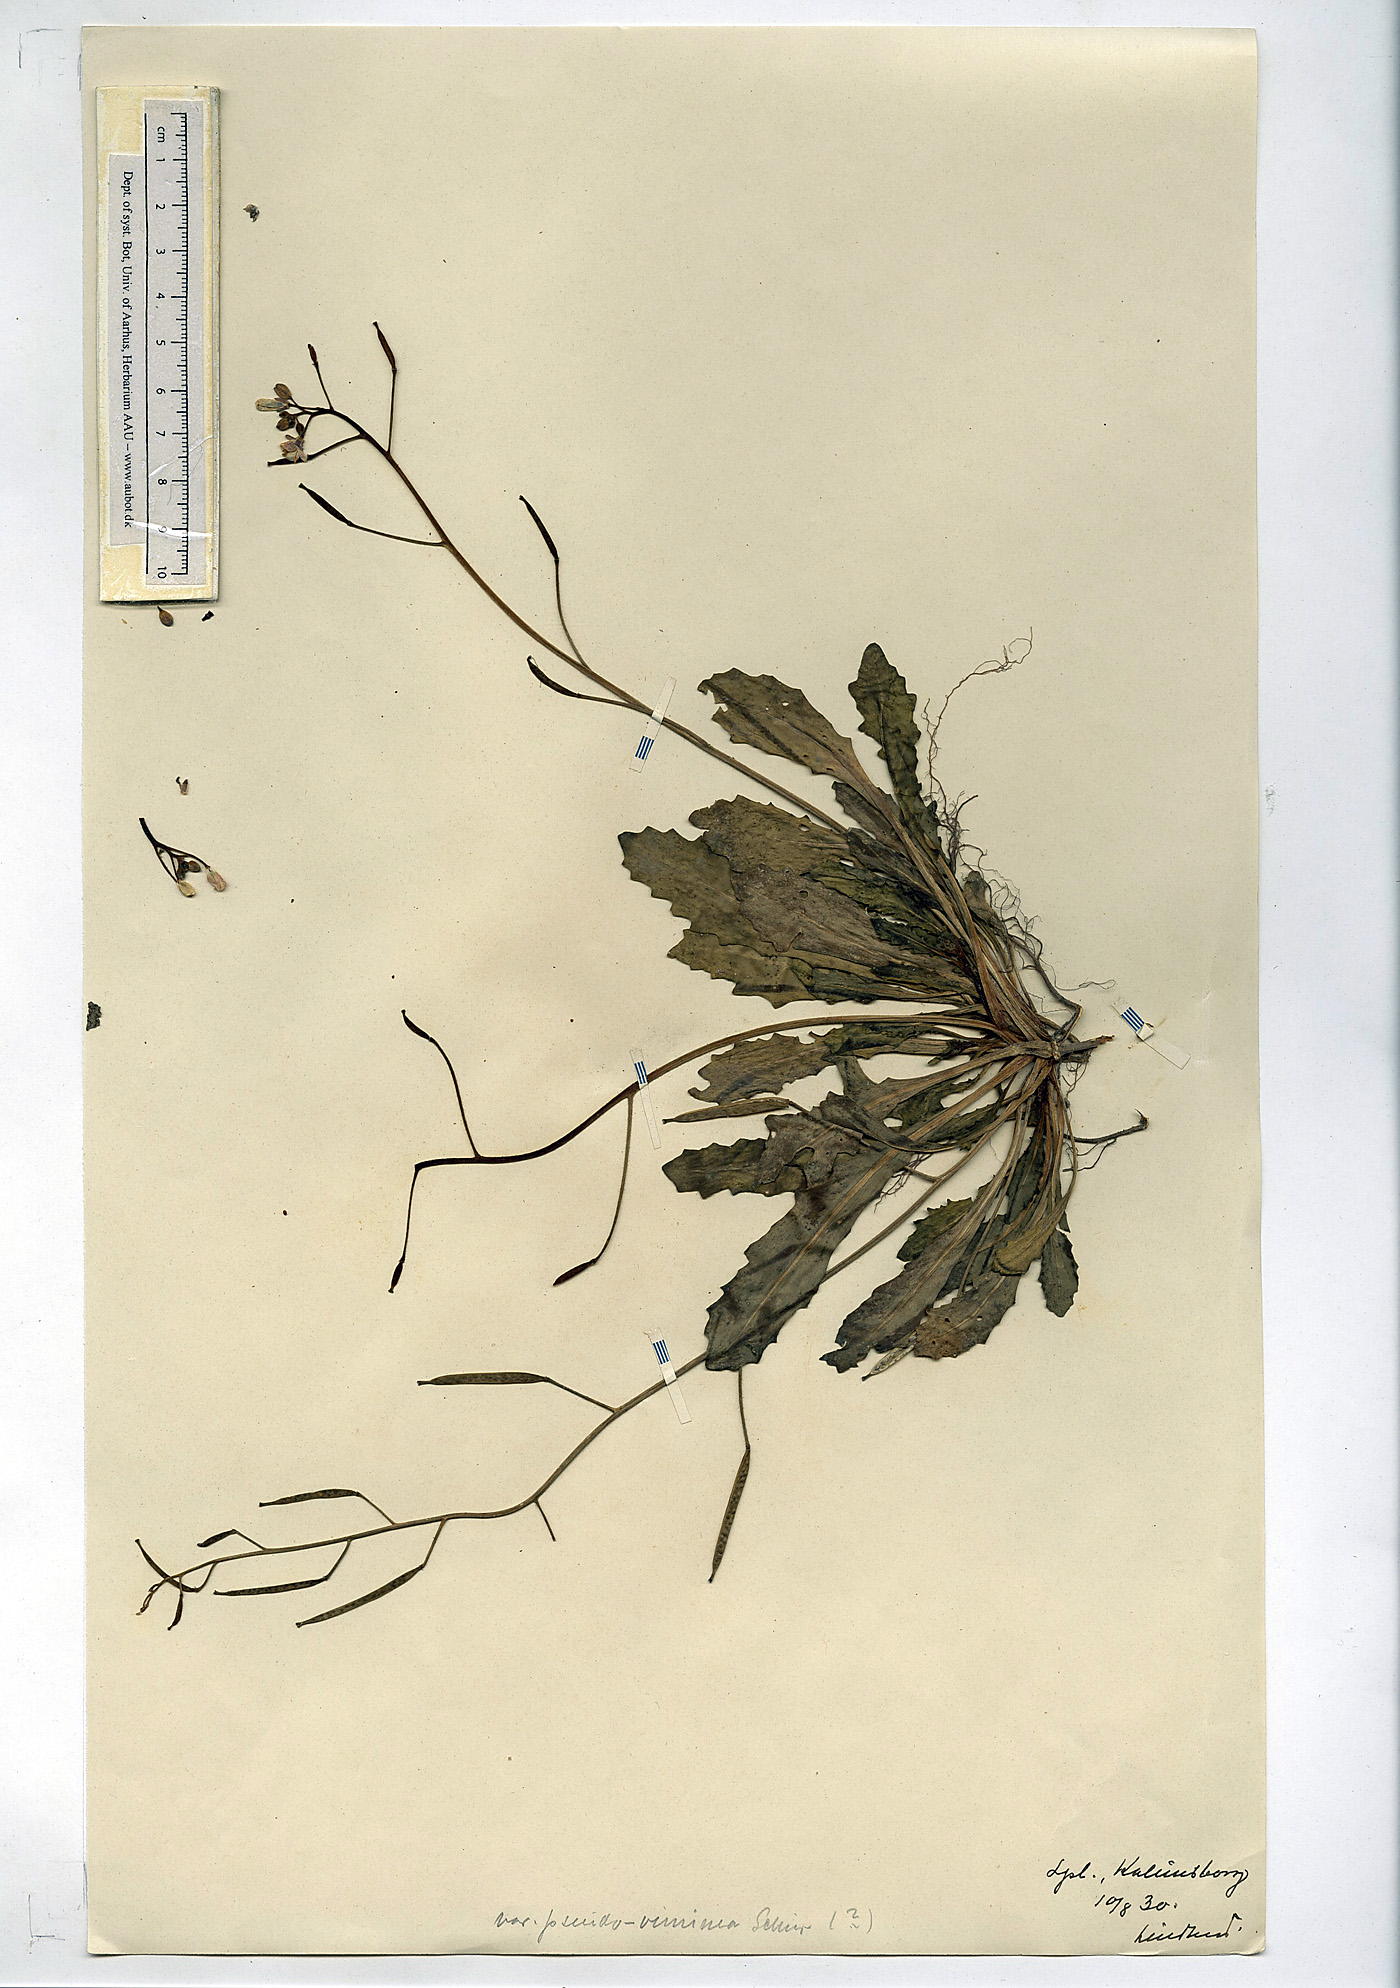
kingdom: Plantae
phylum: Tracheophyta
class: Magnoliopsida
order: Brassicales
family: Brassicaceae
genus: Diplotaxis
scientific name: Diplotaxis muralis
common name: Annual wall-rocket
